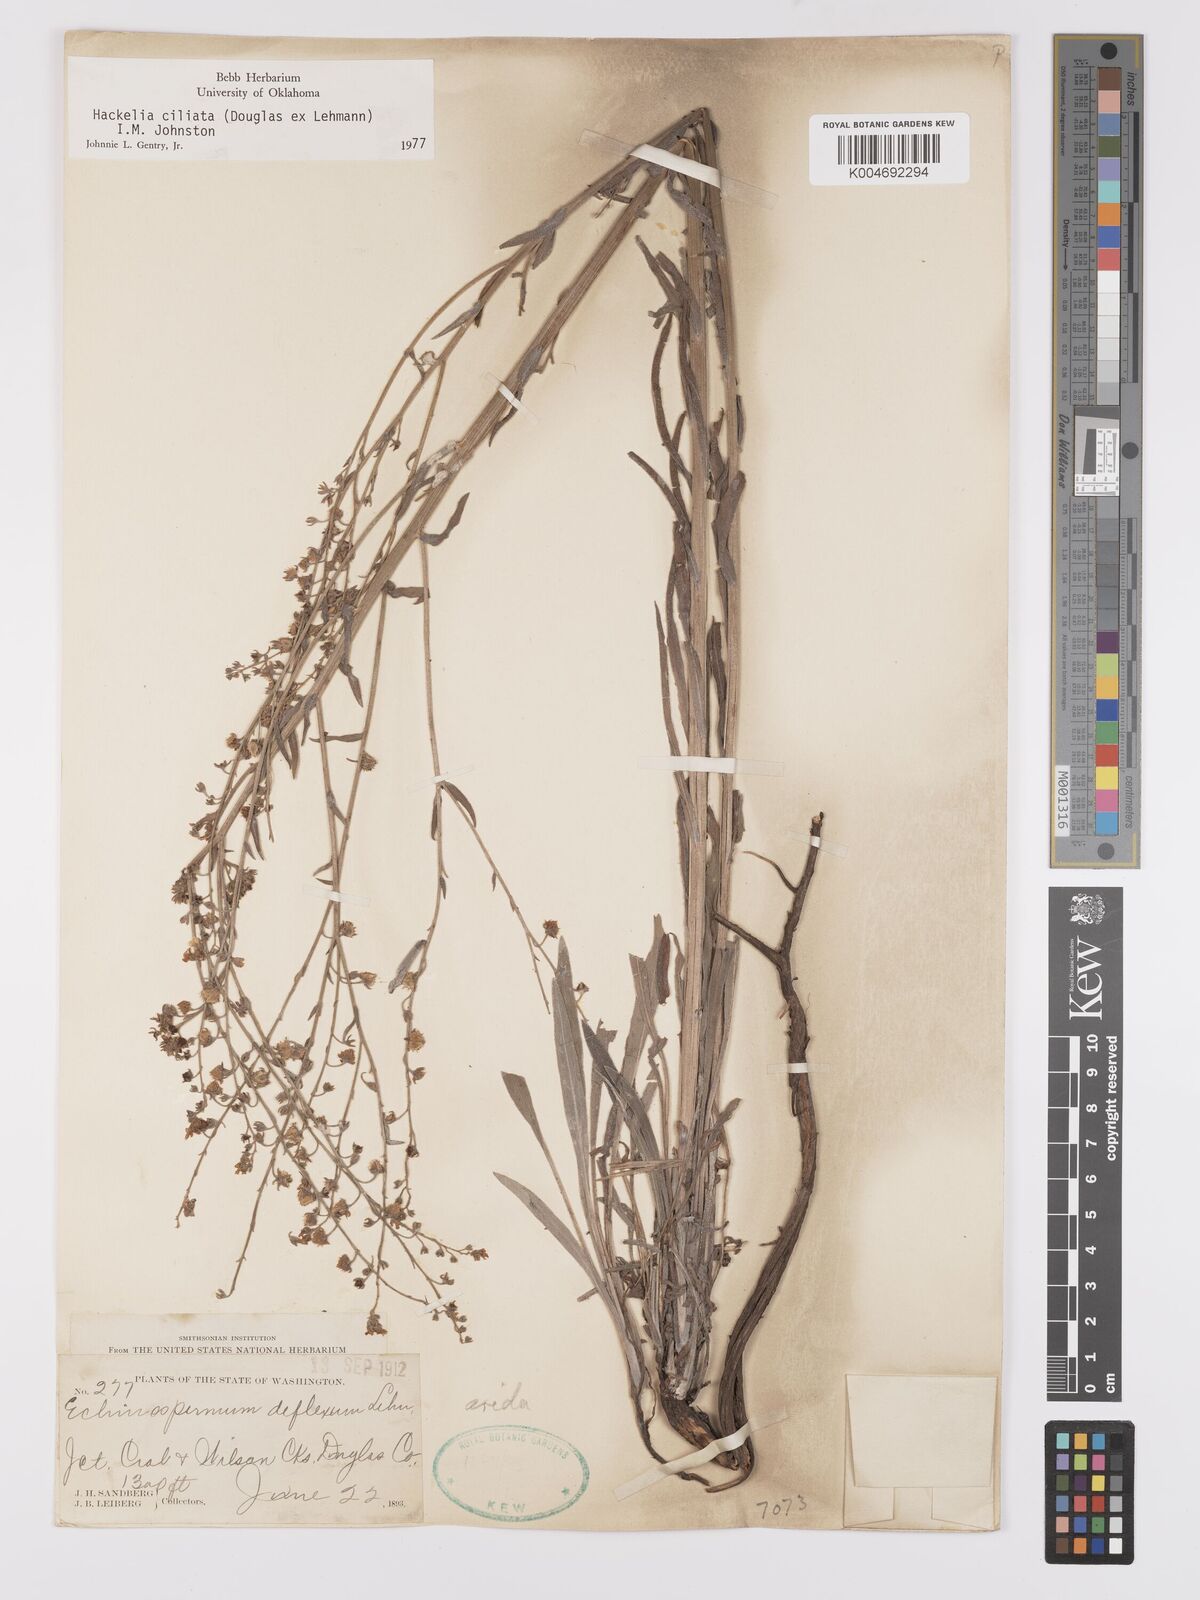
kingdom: Plantae
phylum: Tracheophyta
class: Magnoliopsida
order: Boraginales
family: Boraginaceae
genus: Hackelia
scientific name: Hackelia ciliata
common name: Okanagan stickseed
